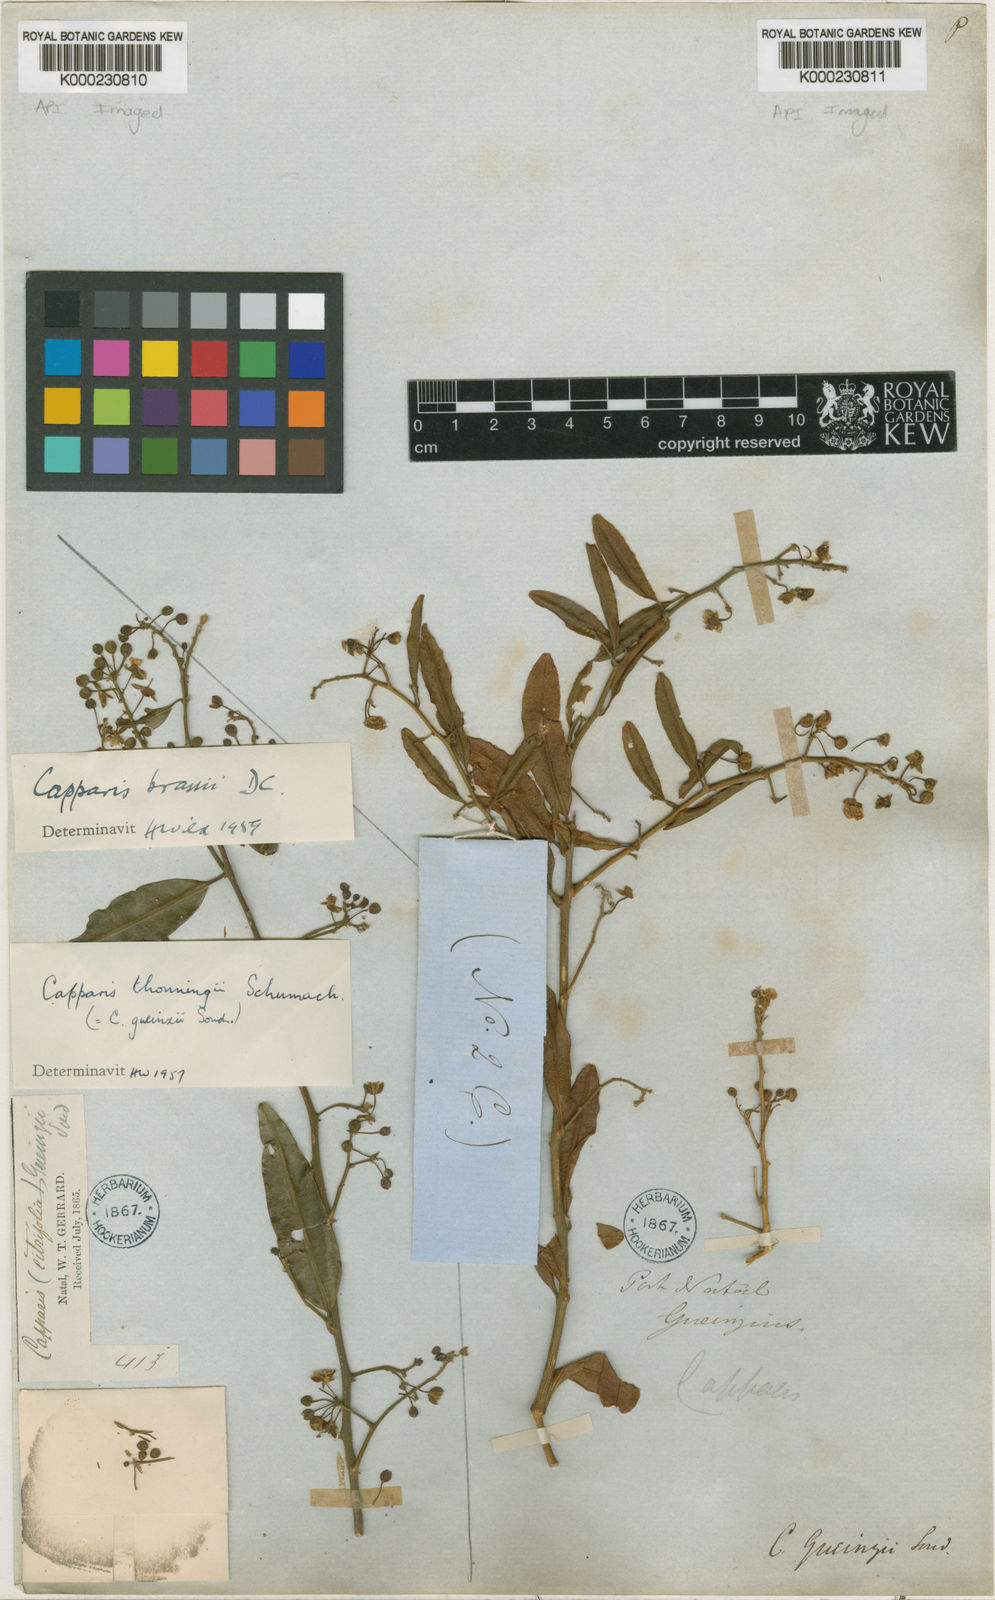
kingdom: Plantae
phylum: Tracheophyta
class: Magnoliopsida
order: Brassicales
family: Capparaceae
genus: Capparis
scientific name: Capparis brassii
